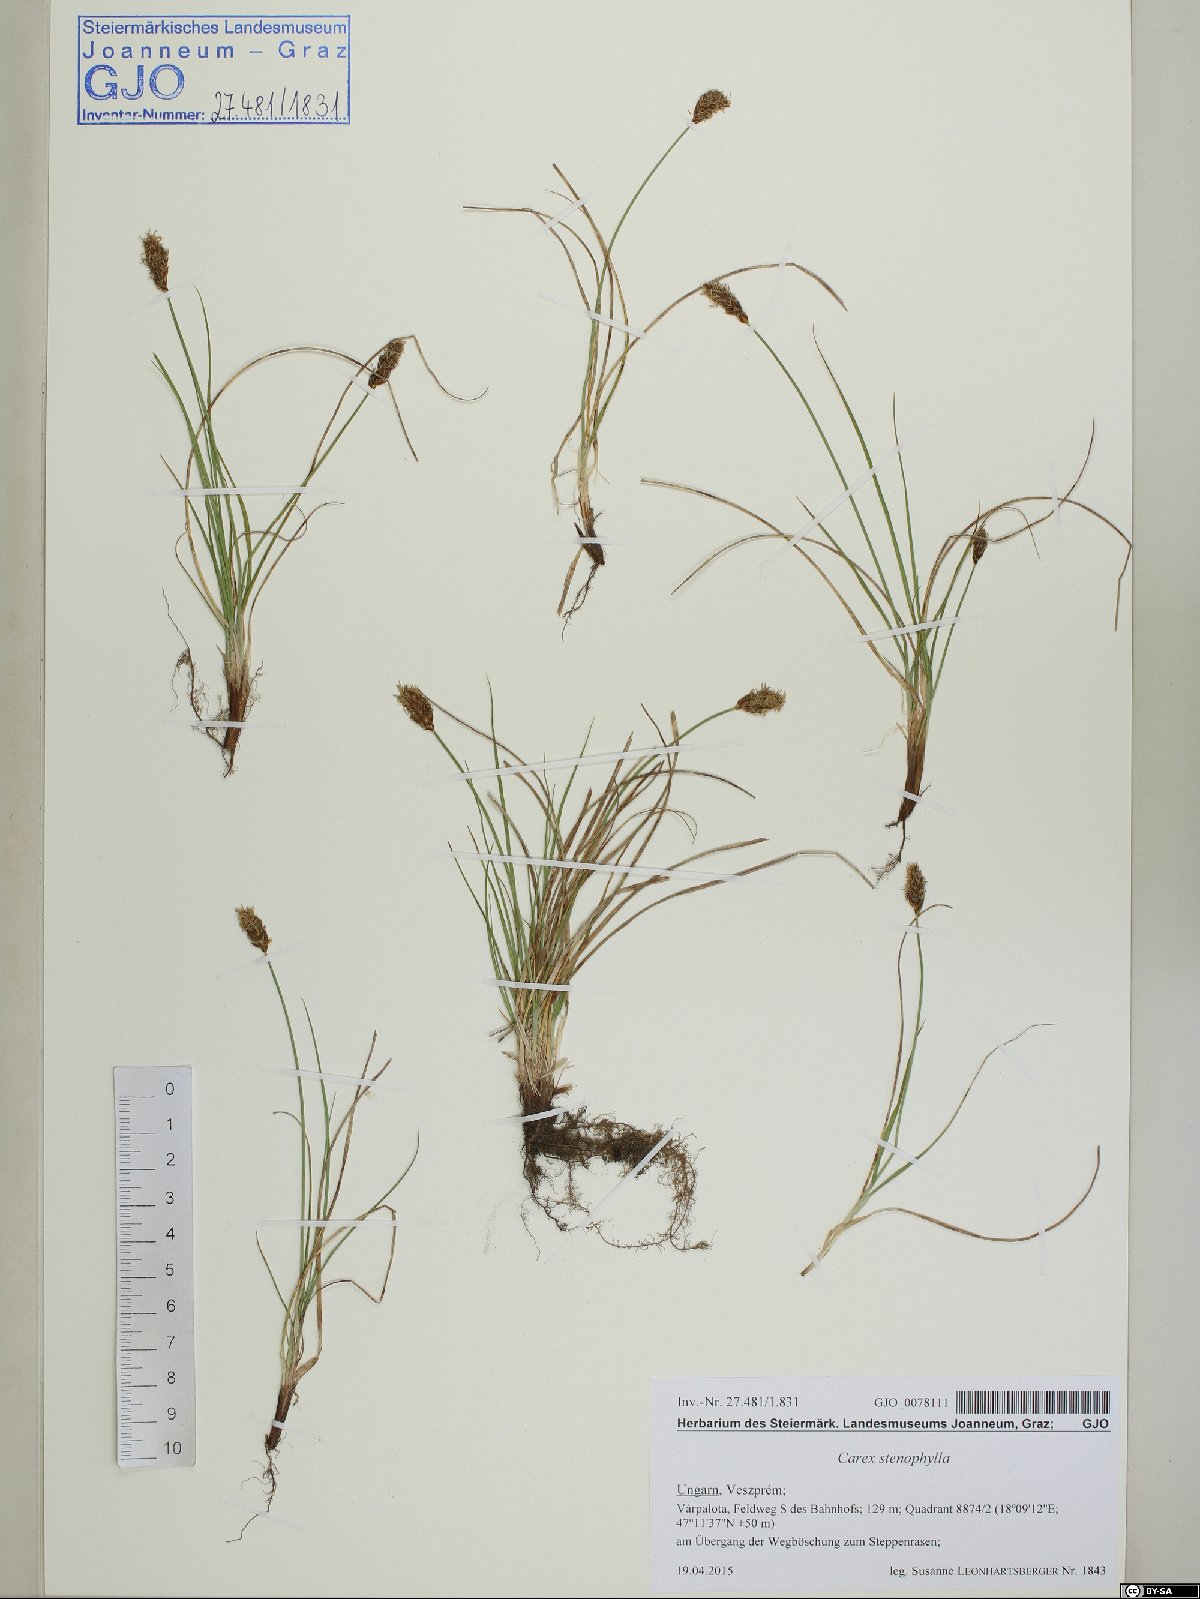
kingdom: Plantae
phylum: Tracheophyta
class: Liliopsida
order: Poales
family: Cyperaceae
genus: Carex
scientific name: Carex stenophylla
